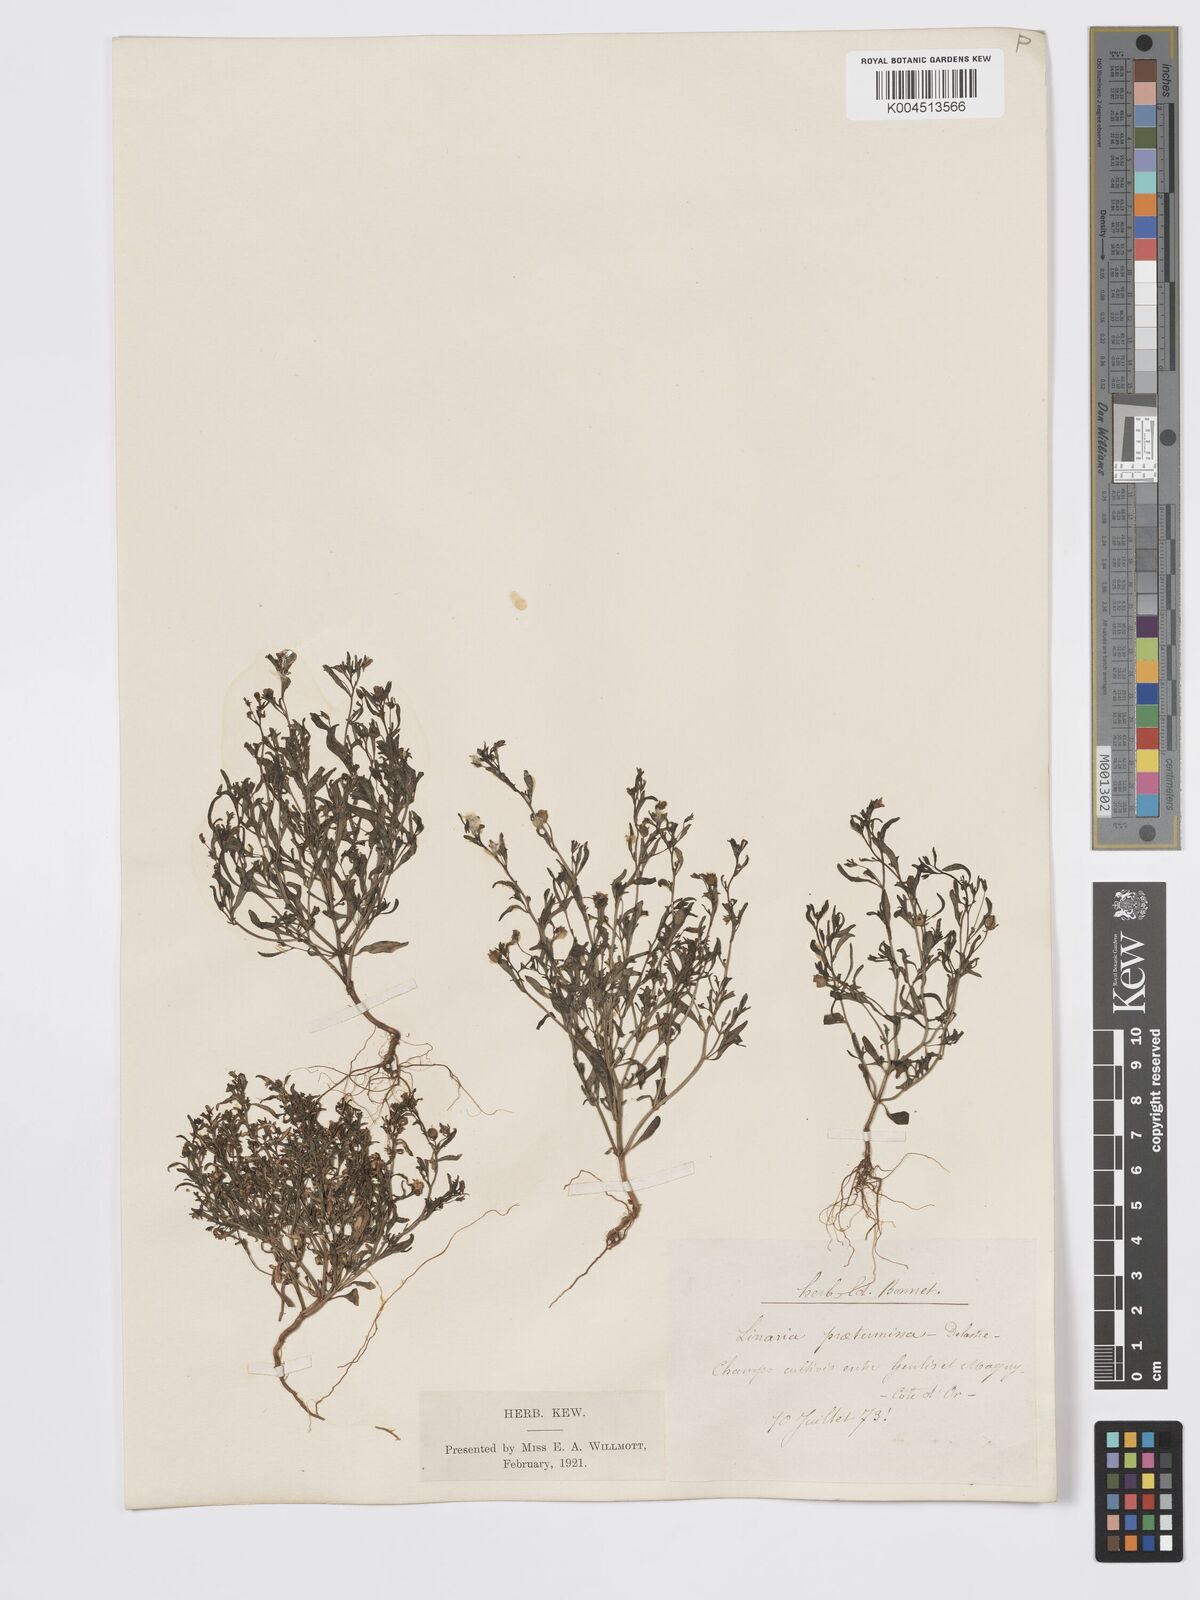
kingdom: Plantae
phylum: Tracheophyta
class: Magnoliopsida
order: Lamiales
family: Plantaginaceae
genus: Chaenorhinum
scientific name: Chaenorhinum minus
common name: Dwarf snapdragon
